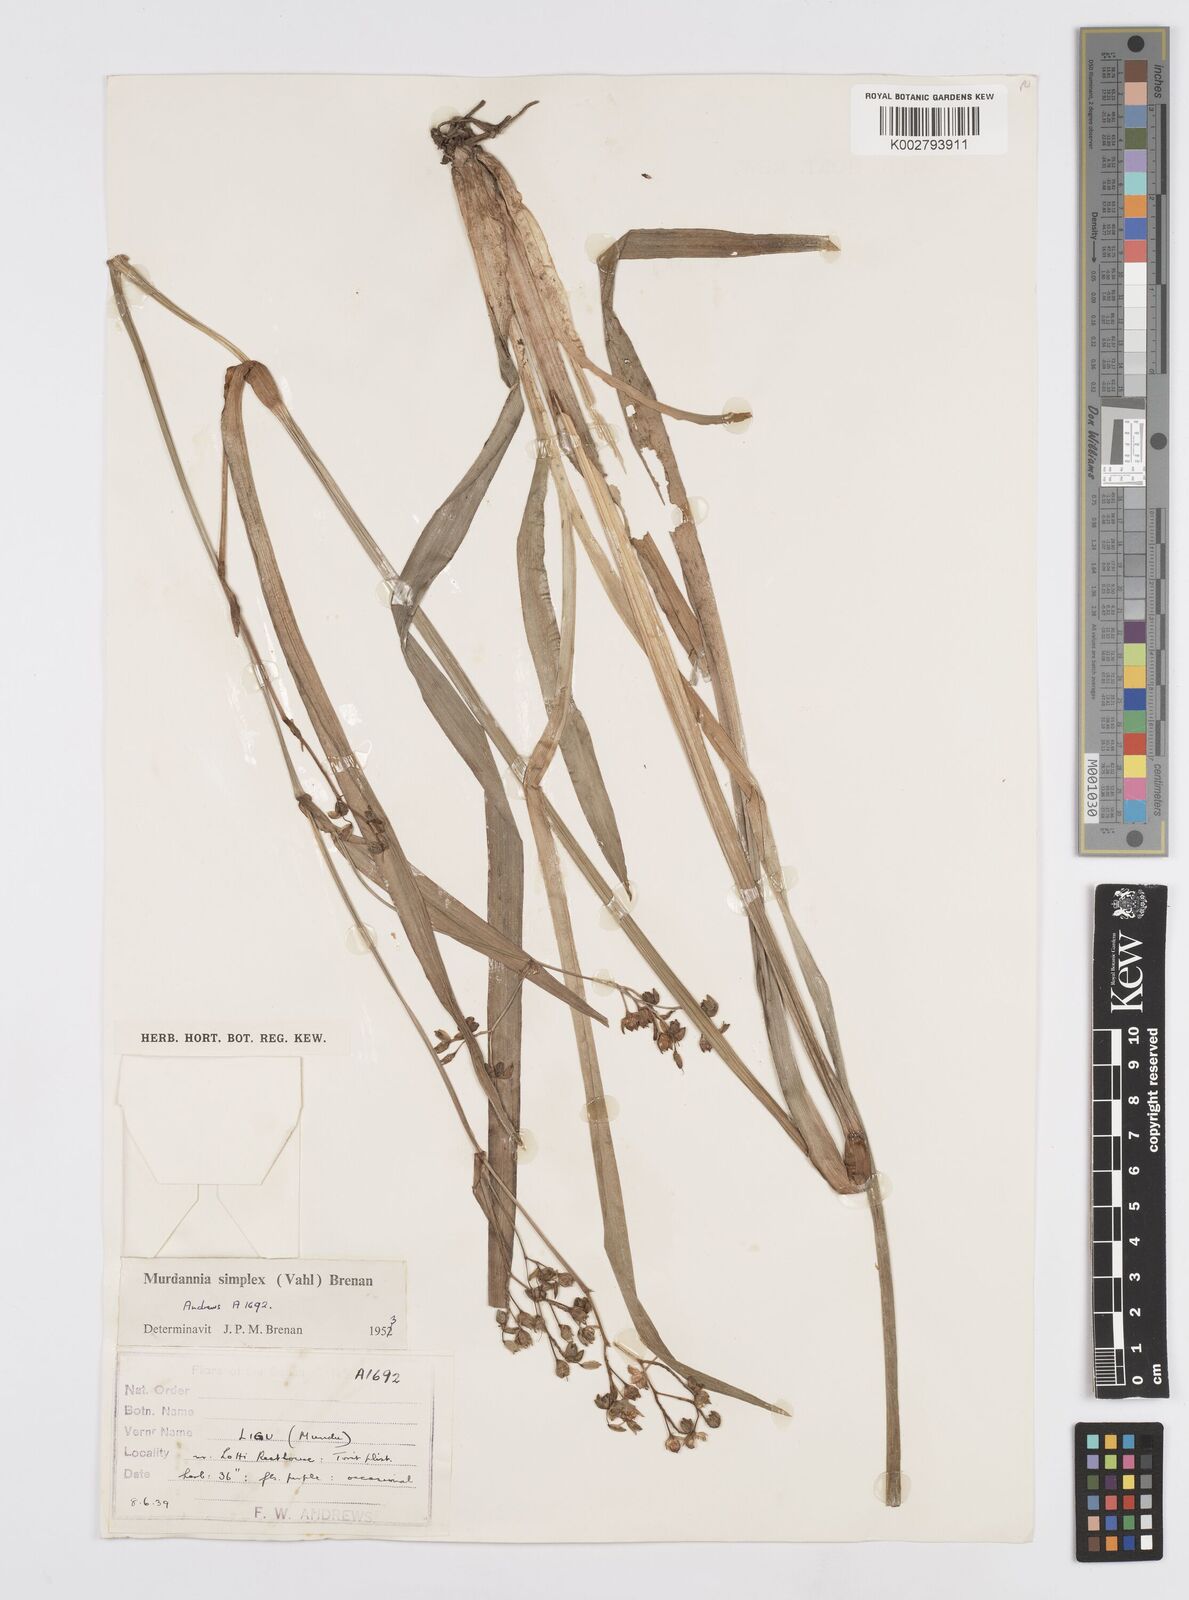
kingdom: Plantae
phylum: Tracheophyta
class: Liliopsida
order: Commelinales
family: Commelinaceae
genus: Murdannia
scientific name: Murdannia simplex
